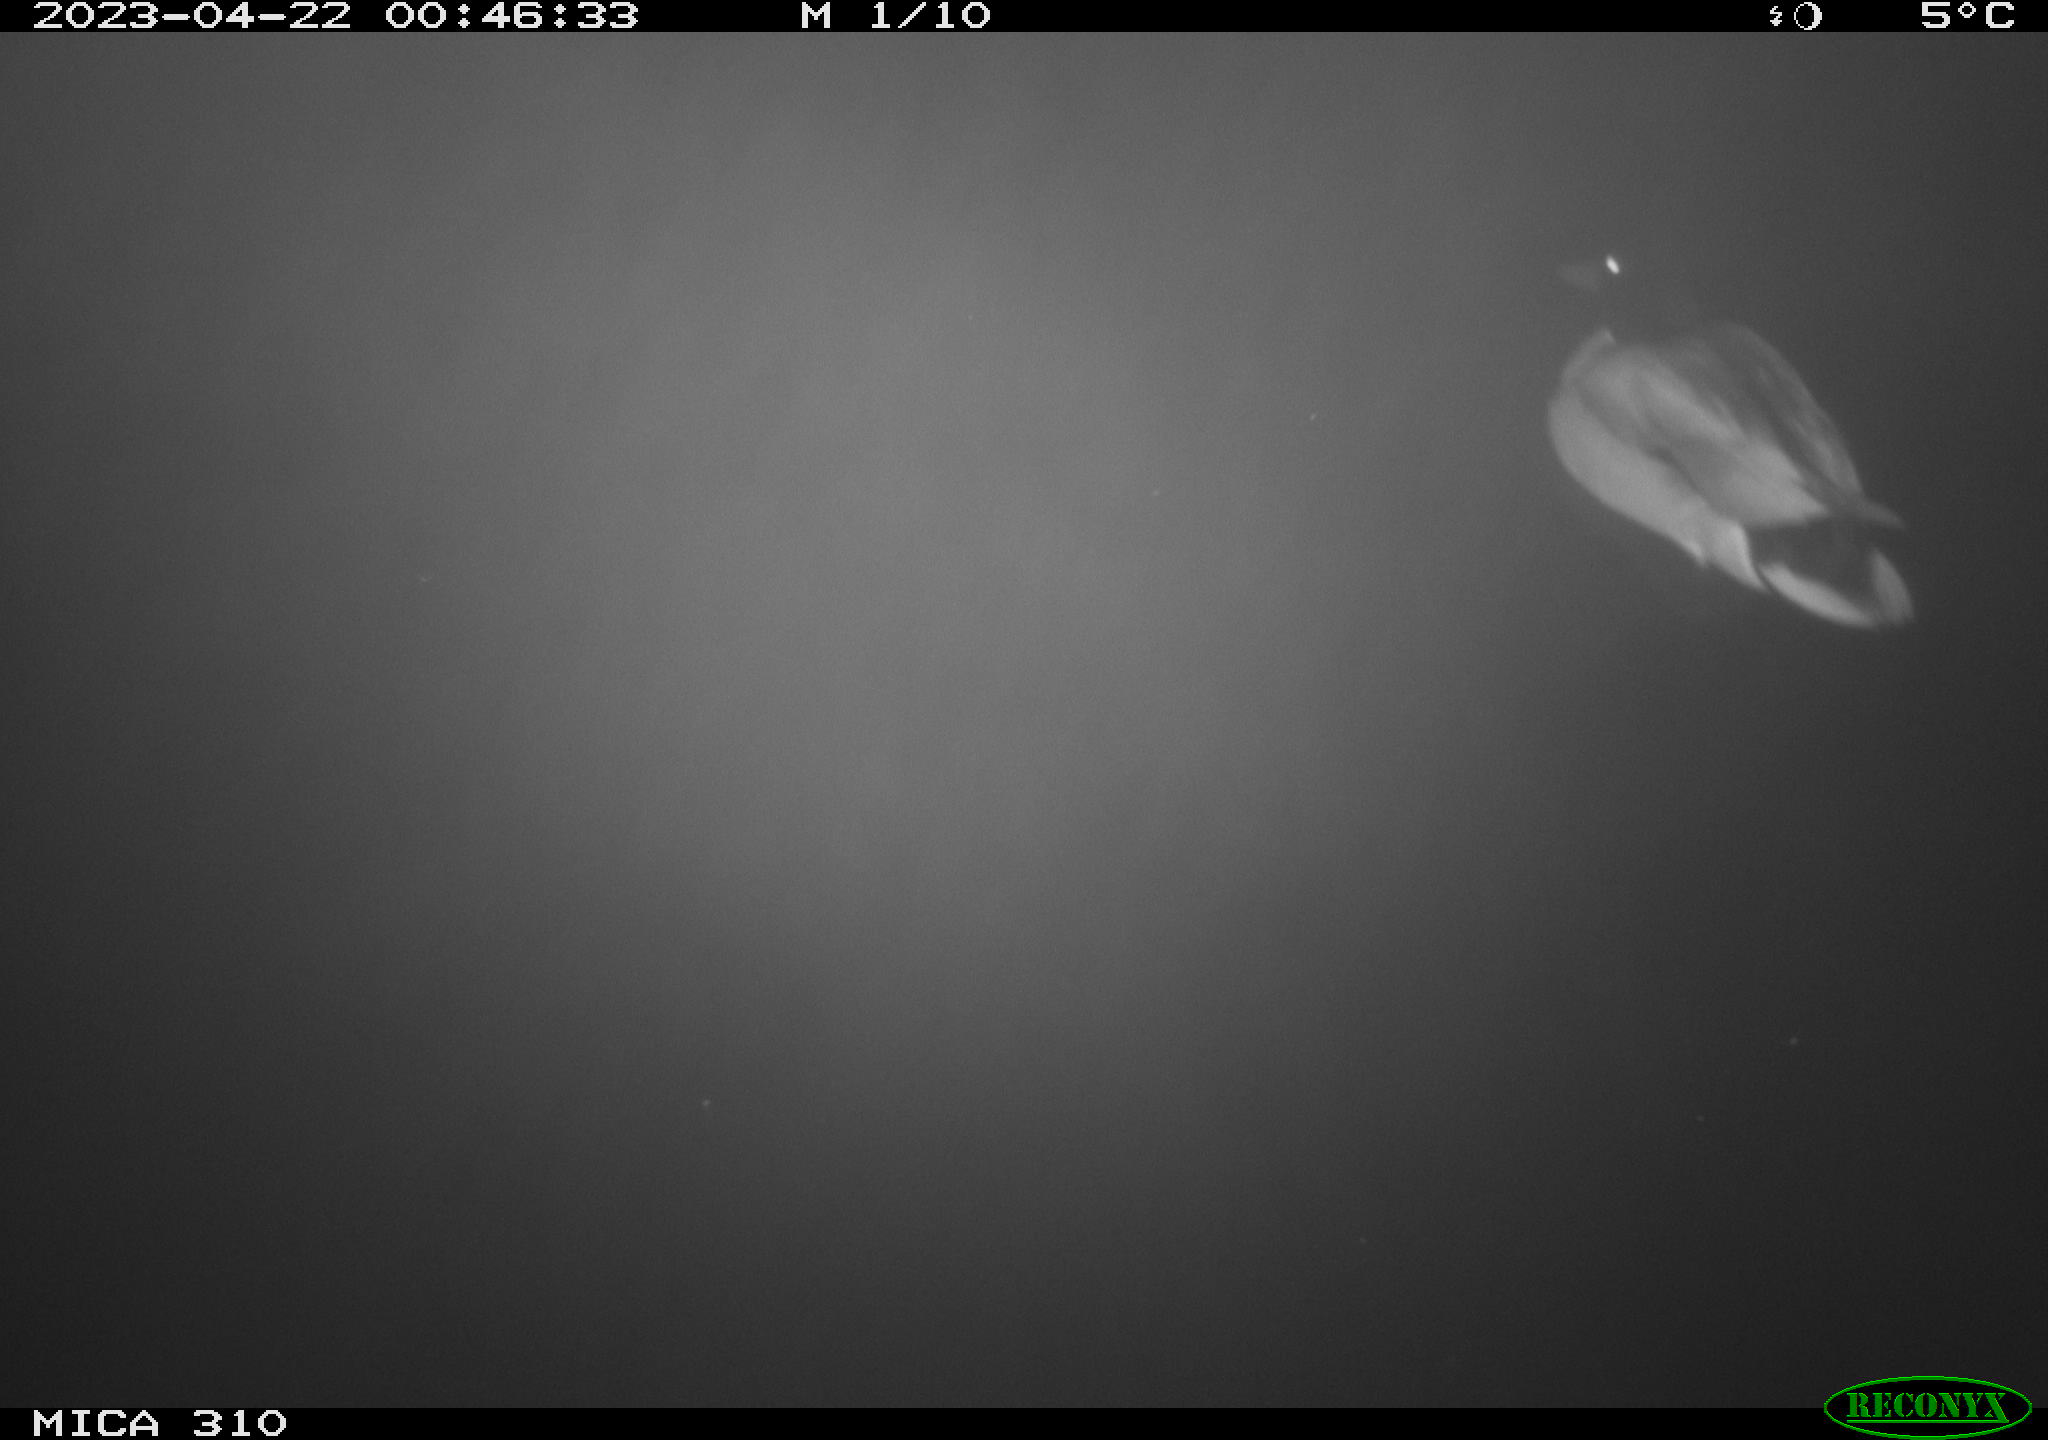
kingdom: Animalia
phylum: Chordata
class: Aves
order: Anseriformes
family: Anatidae
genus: Anas
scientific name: Anas
